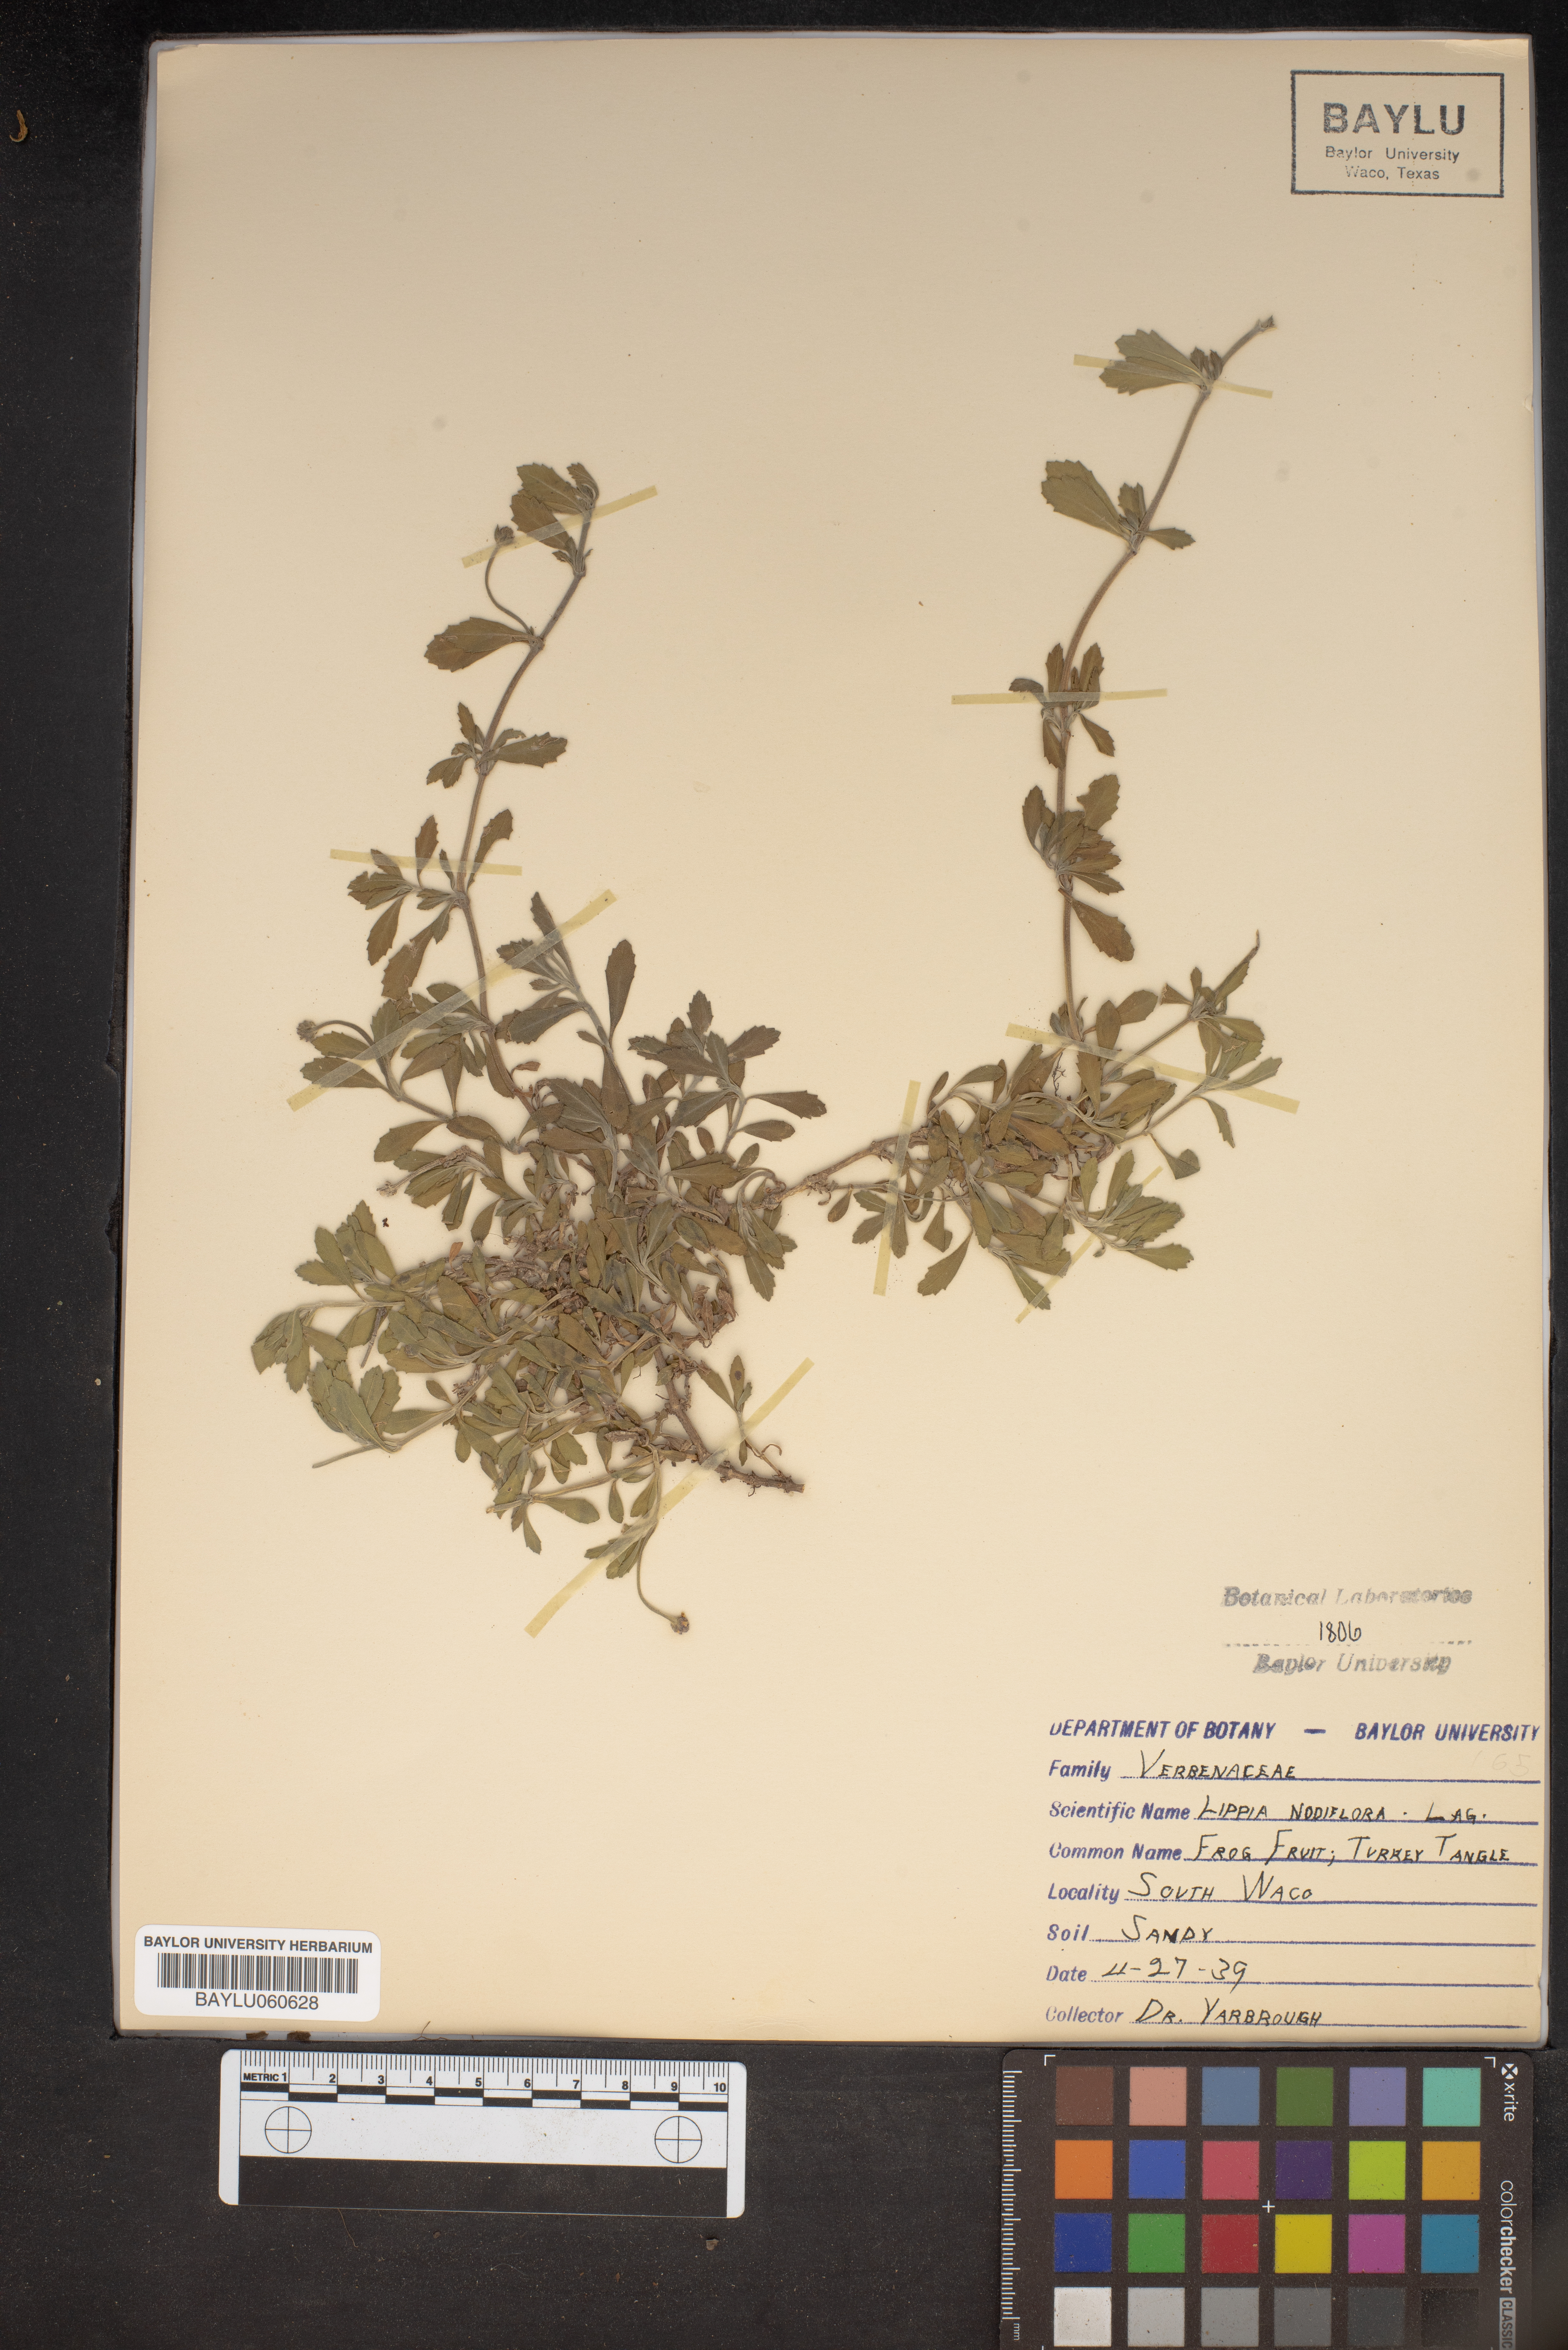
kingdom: Plantae
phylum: Tracheophyta
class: Magnoliopsida
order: Lamiales
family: Verbenaceae
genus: Phyla
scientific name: Phyla nodiflora
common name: Frogfruit
